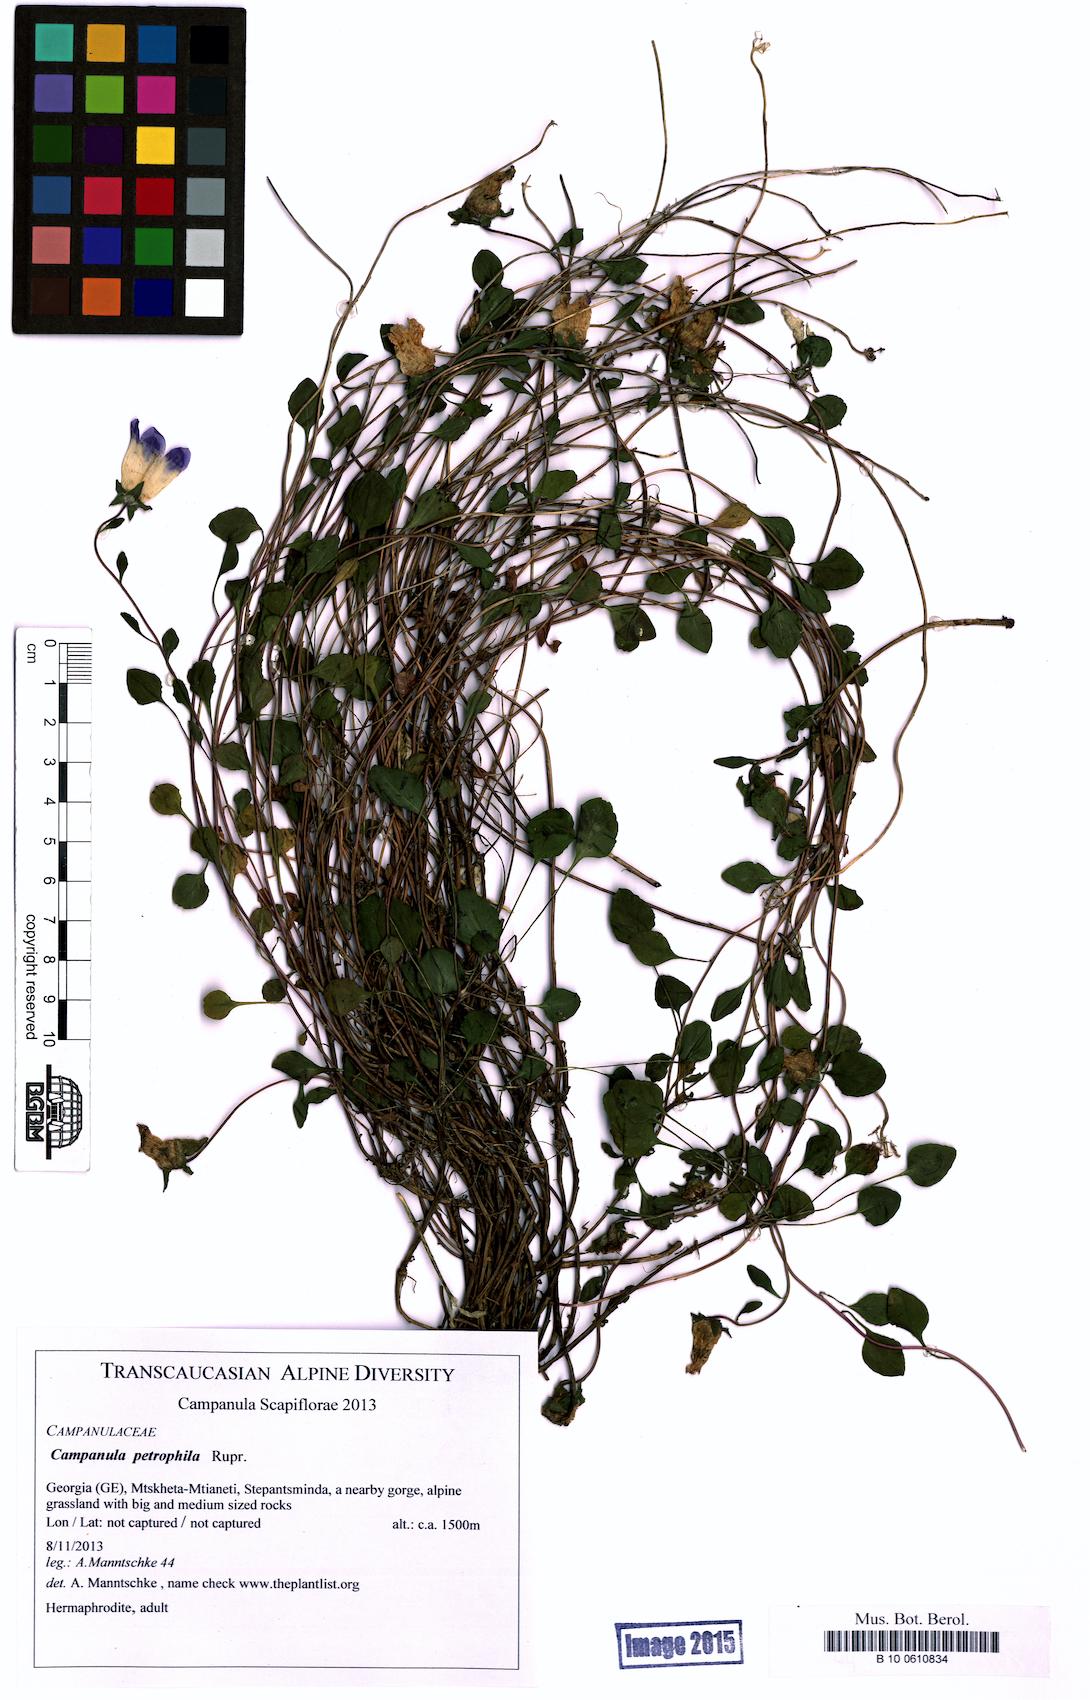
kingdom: Plantae
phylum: Tracheophyta
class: Magnoliopsida
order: Asterales
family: Campanulaceae
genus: Campanula
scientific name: Campanula petrophila
